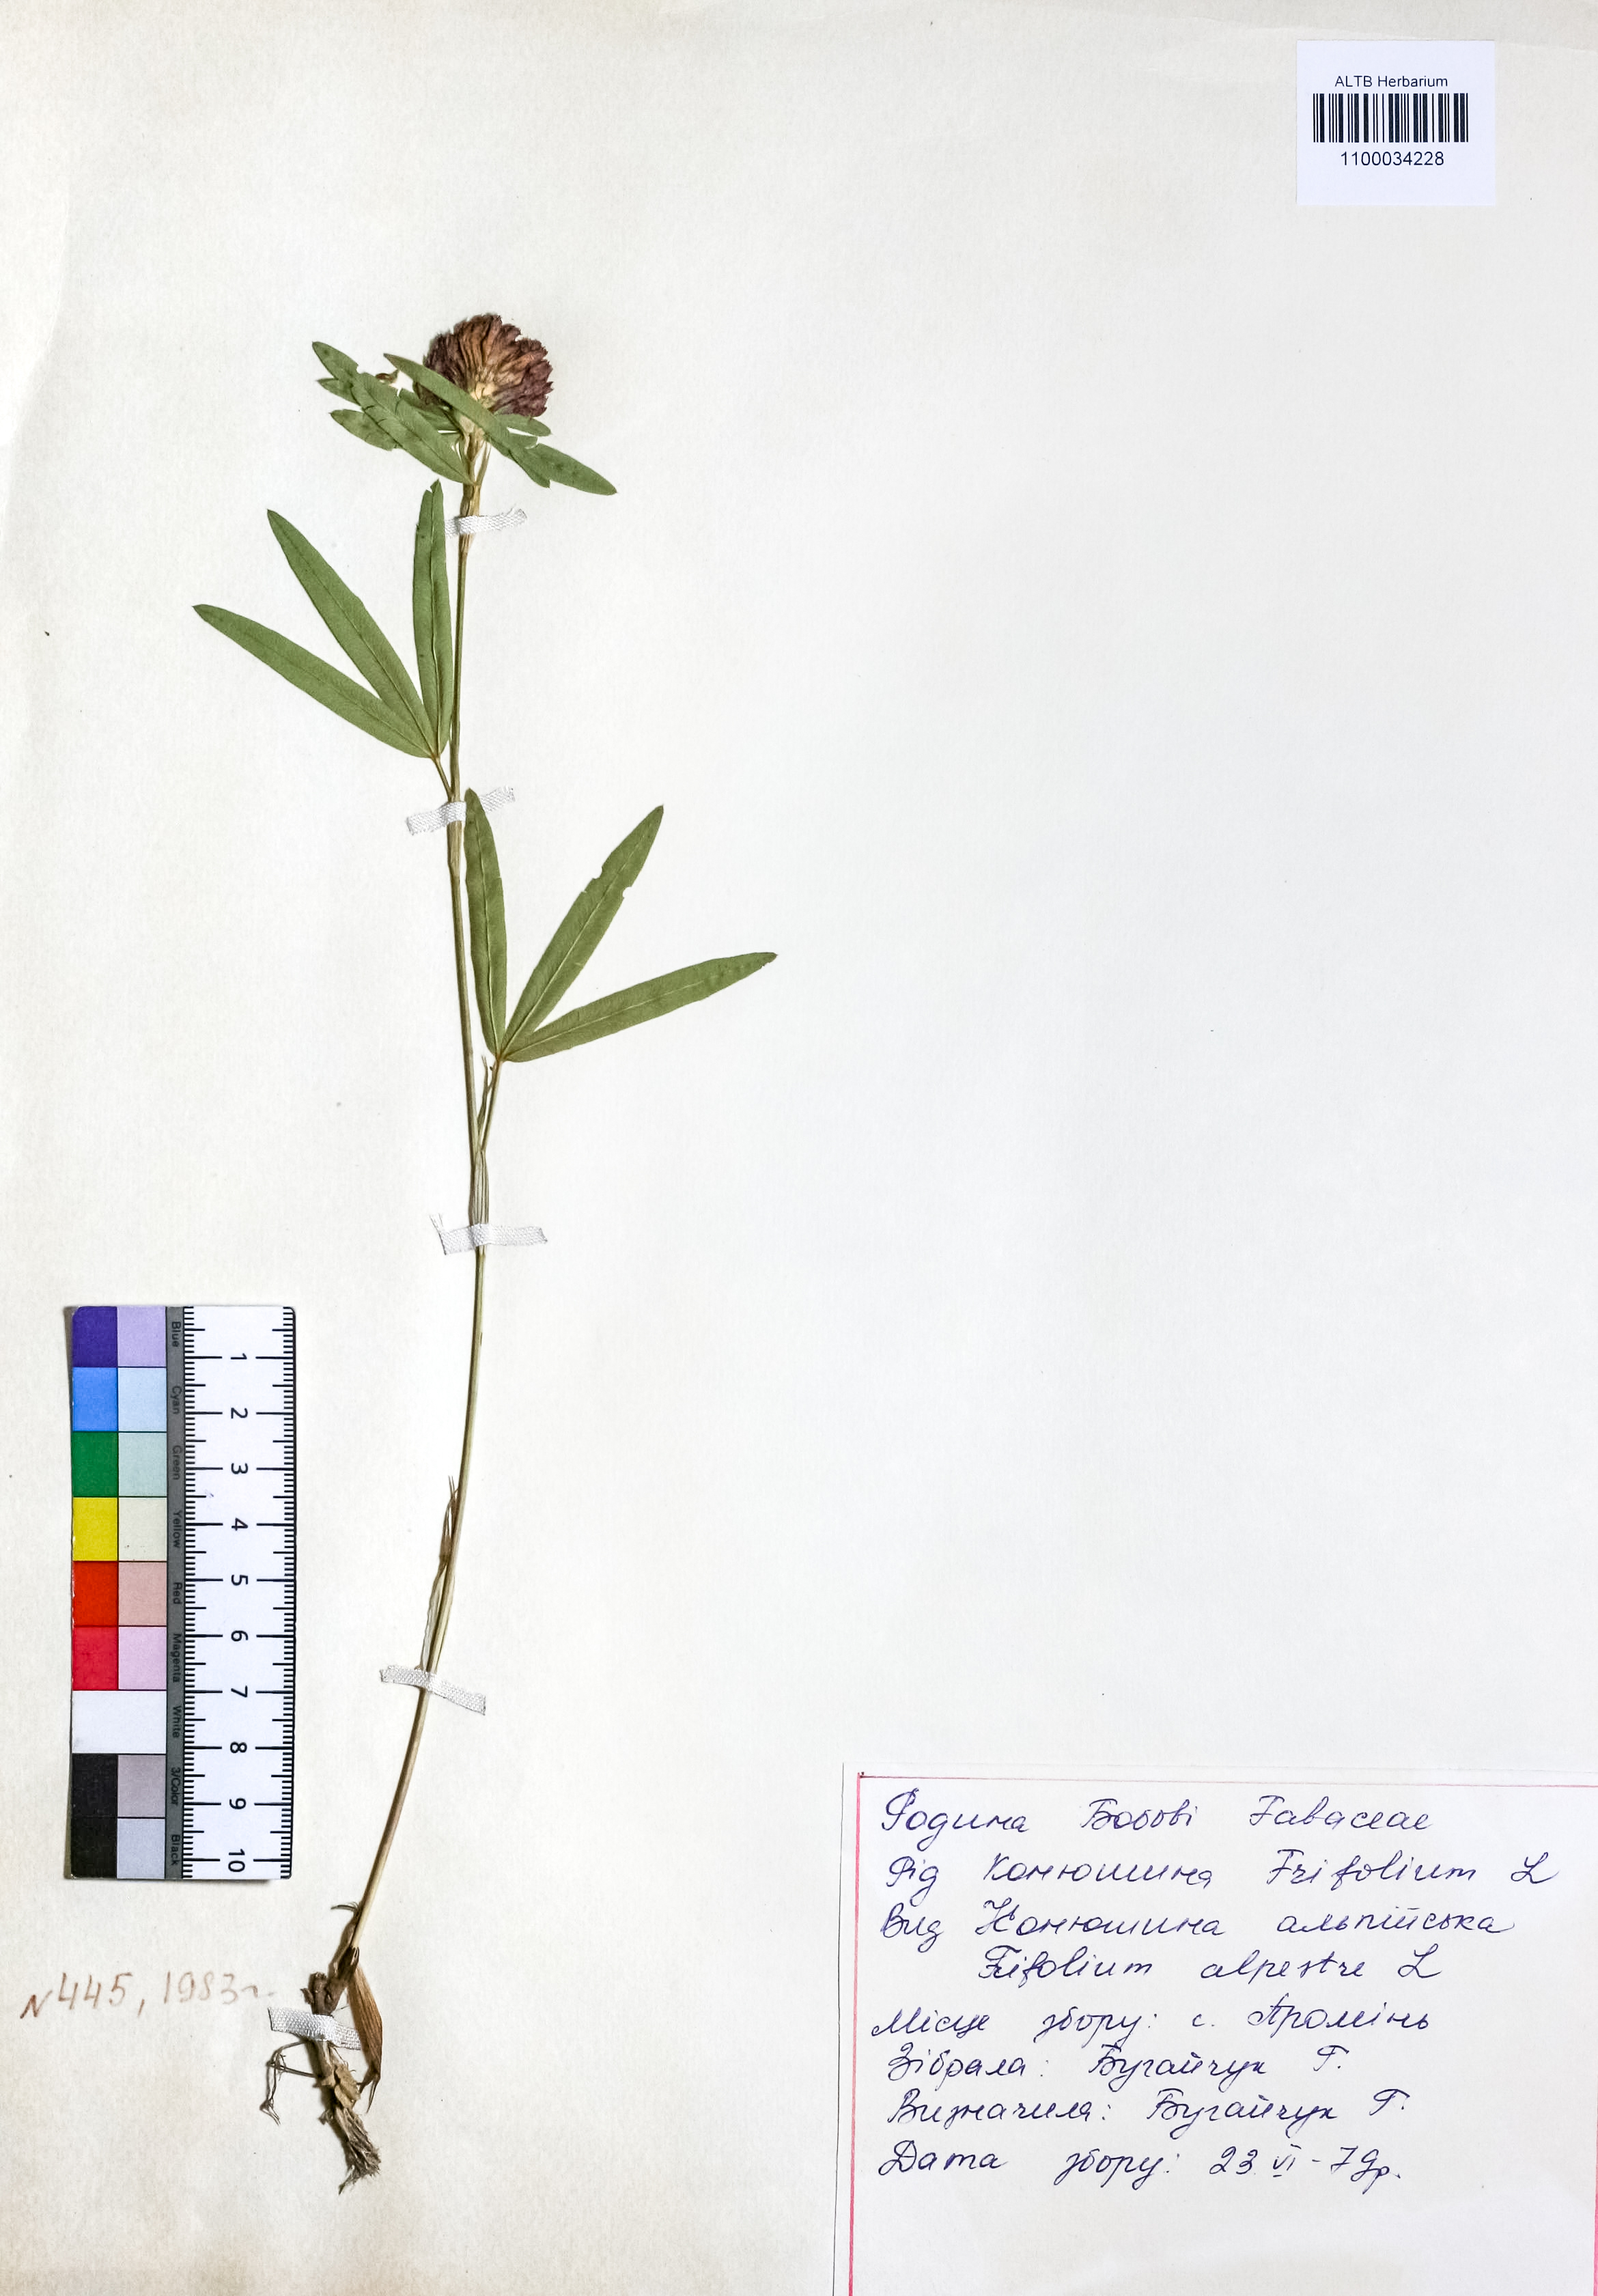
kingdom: Plantae
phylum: Tracheophyta
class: Magnoliopsida
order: Fabales
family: Fabaceae
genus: Trifolium
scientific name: Trifolium alpestre
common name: Owl-head clover
